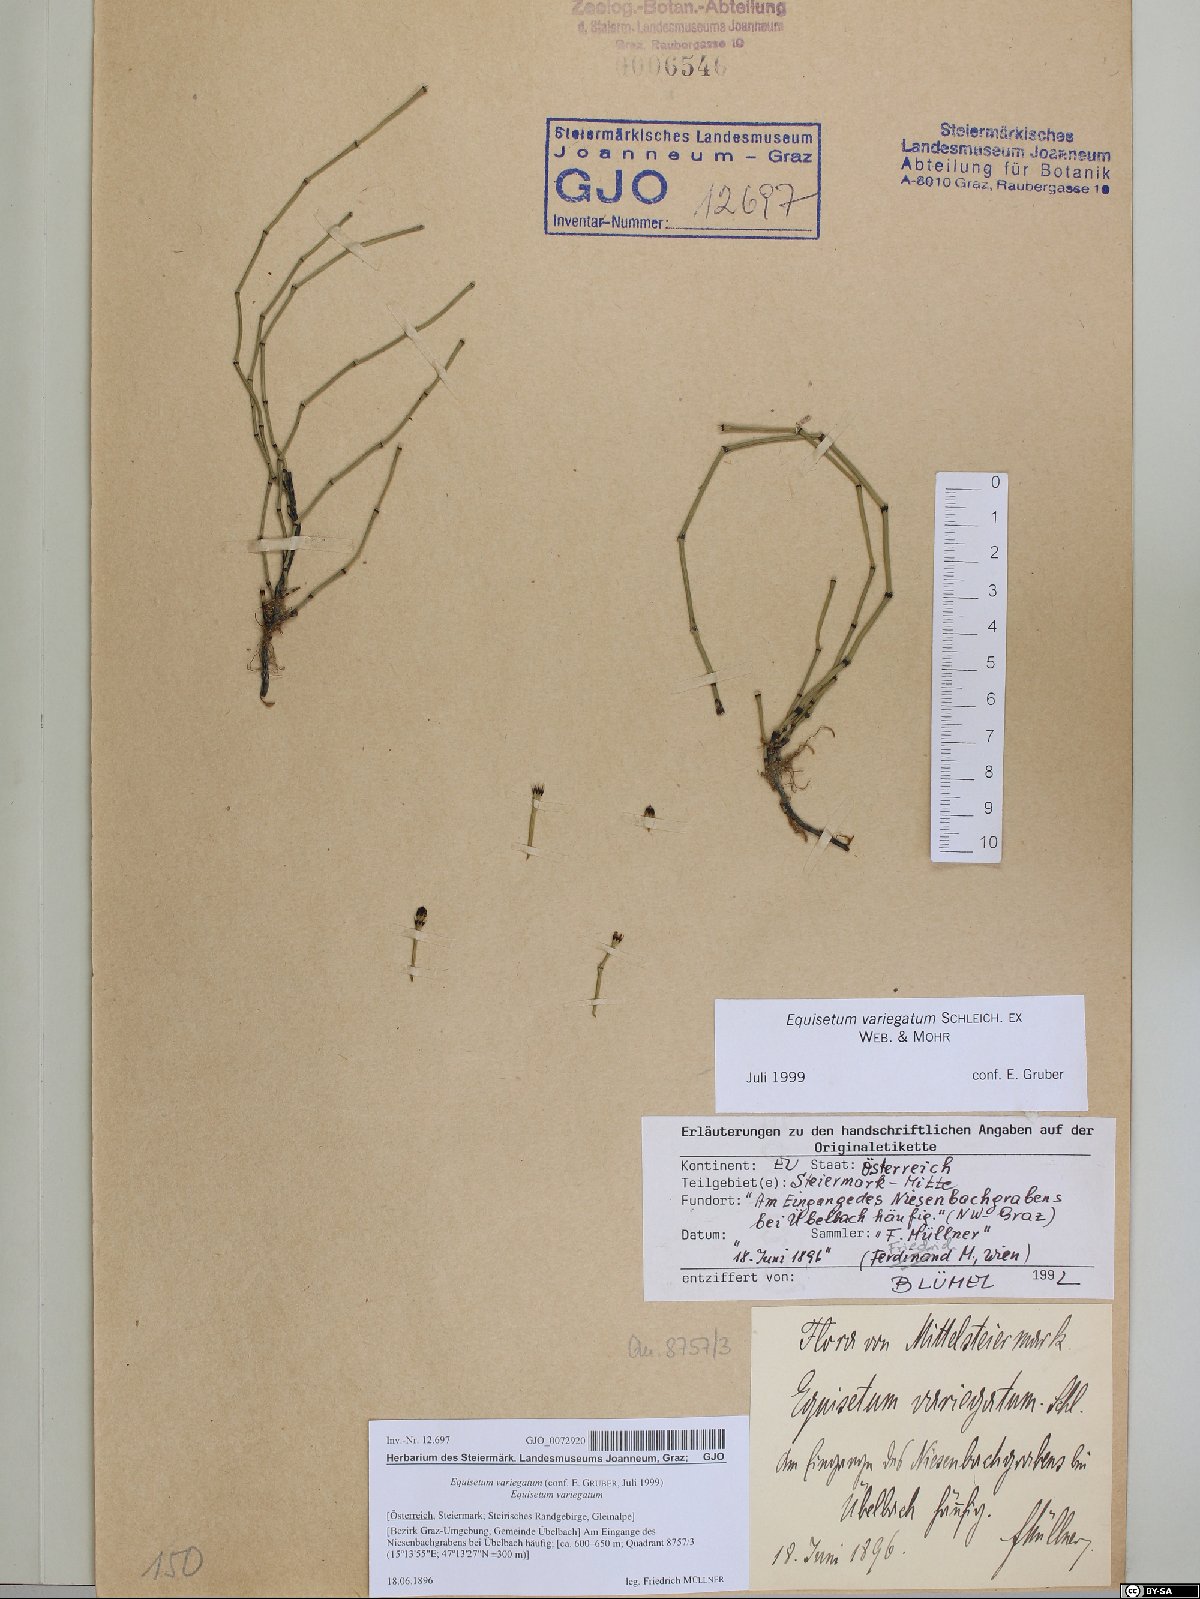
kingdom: Plantae
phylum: Tracheophyta
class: Polypodiopsida
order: Equisetales
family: Equisetaceae
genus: Equisetum
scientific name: Equisetum variegatum
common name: Variegated horsetail
